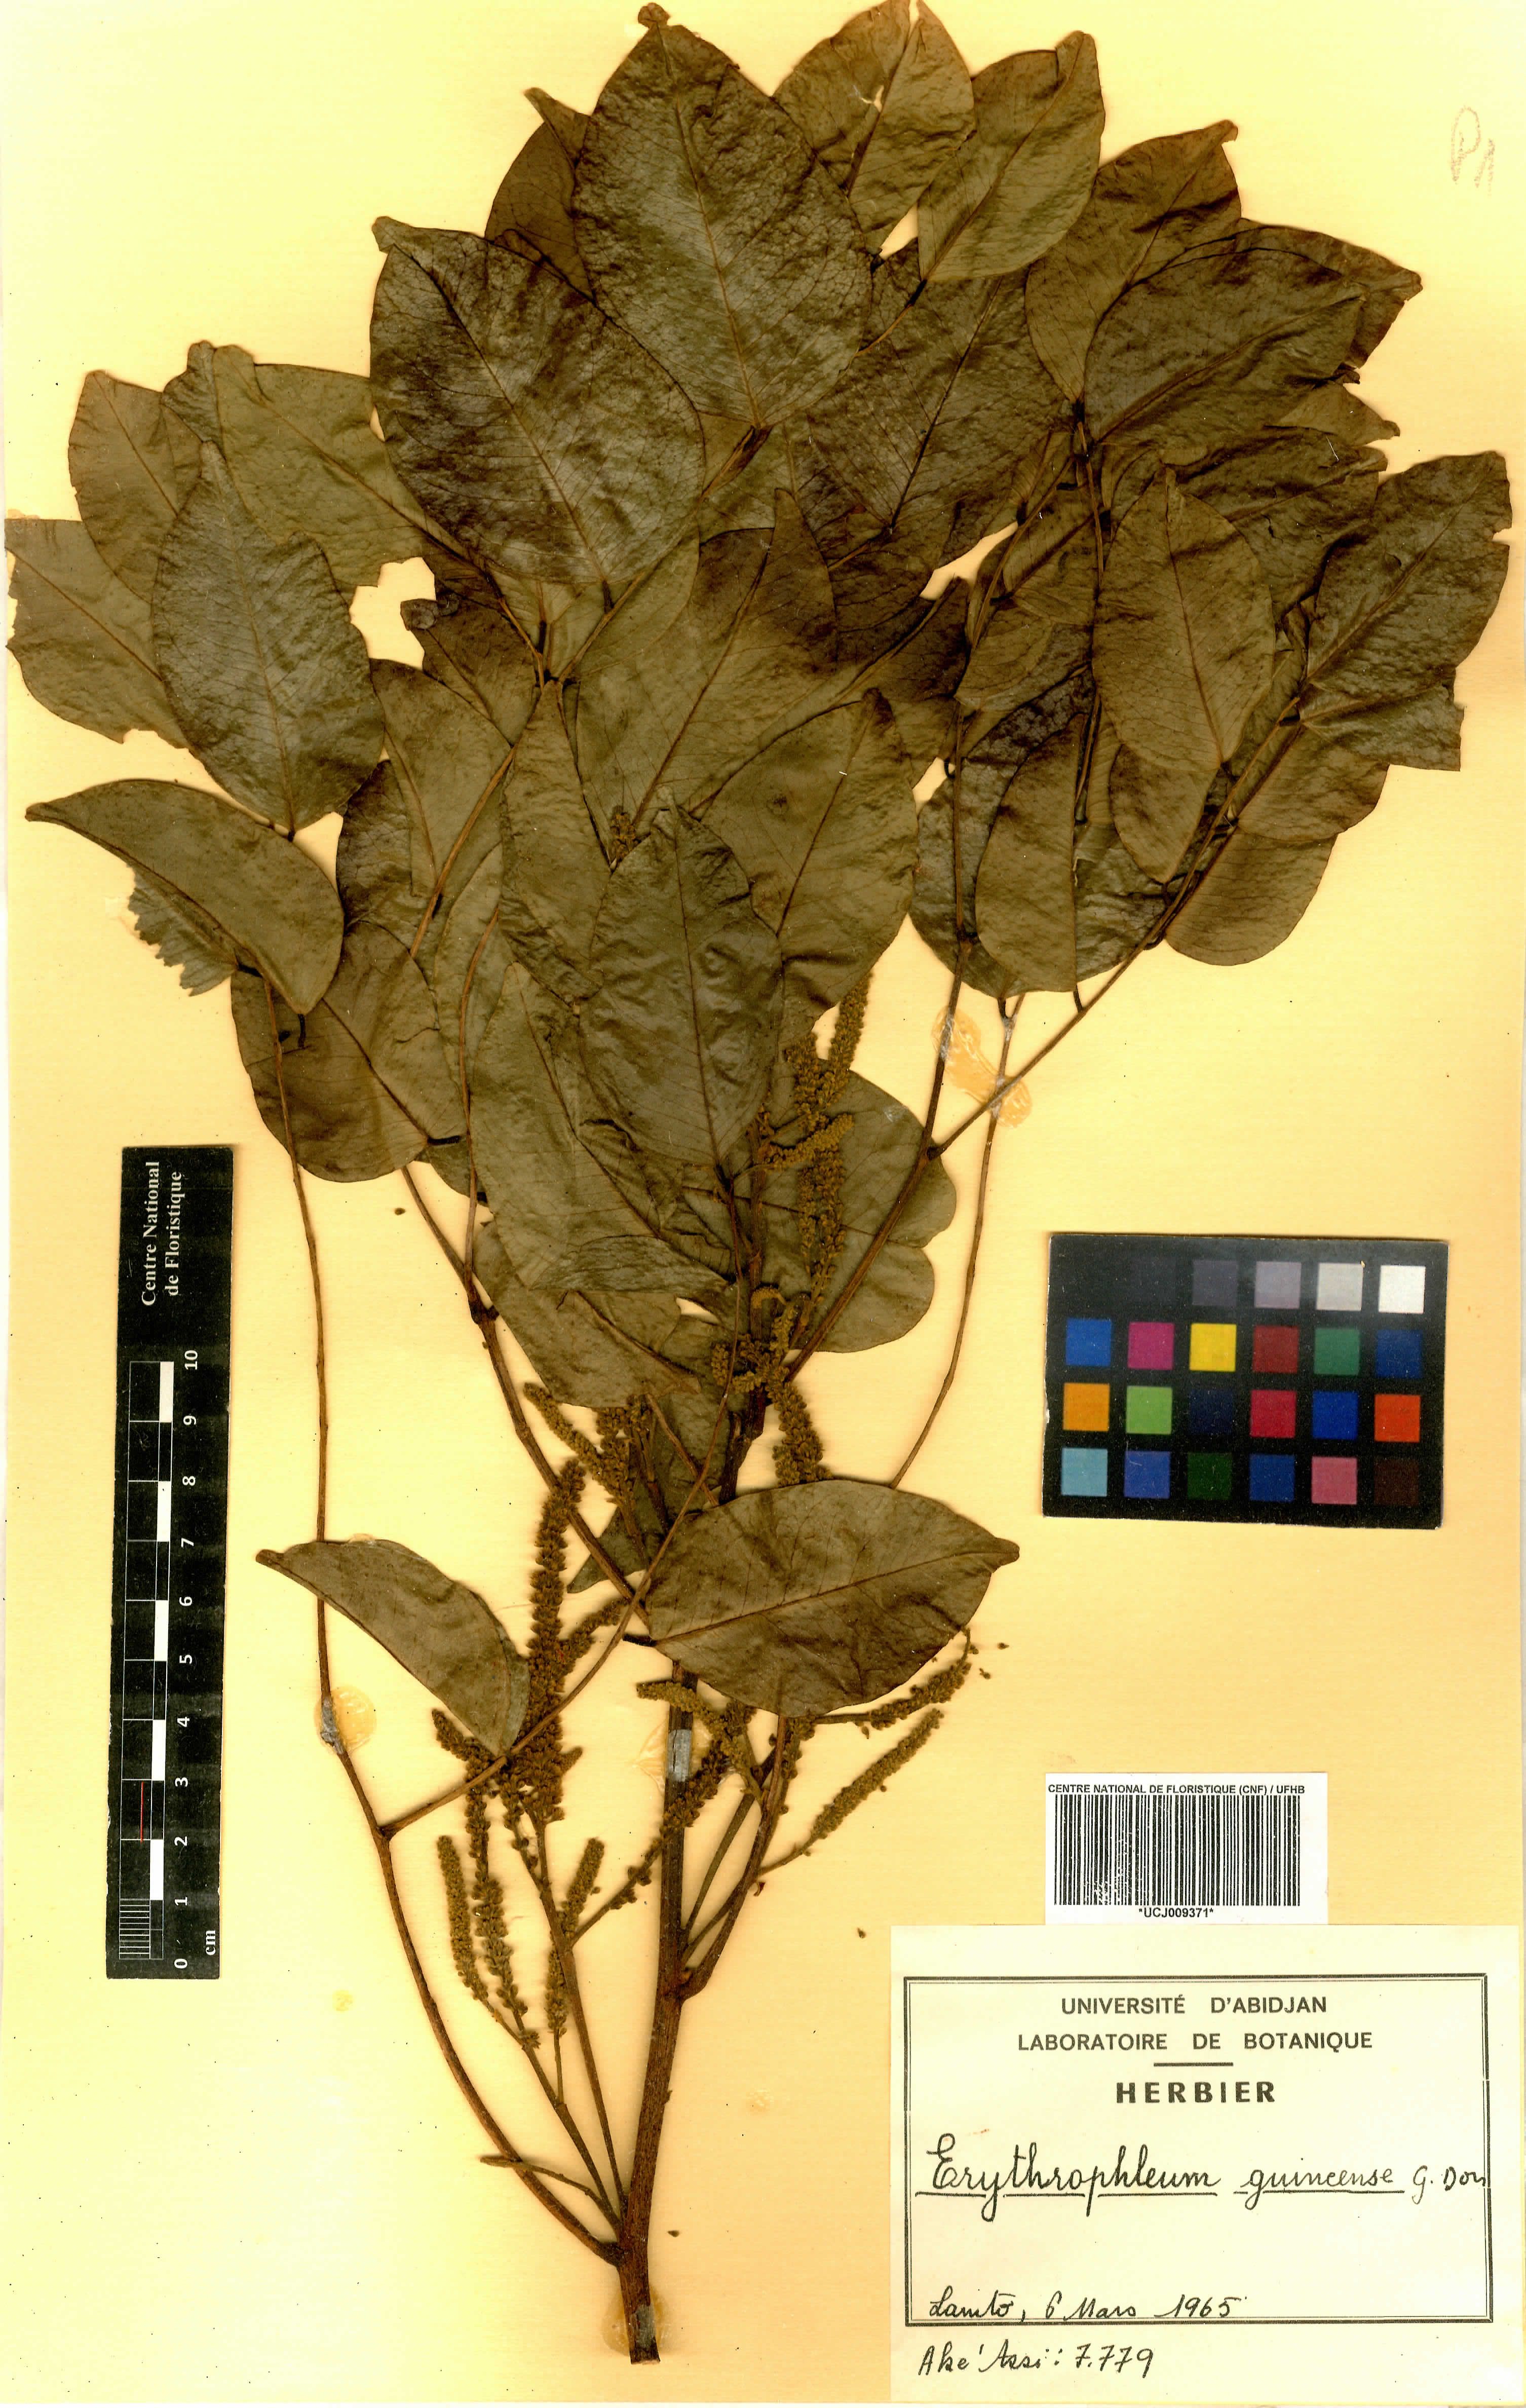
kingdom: Plantae
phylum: Tracheophyta
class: Magnoliopsida
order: Fabales
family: Fabaceae
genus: Erythrophleum
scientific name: Erythrophleum suaveolens
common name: Ordeal tree
